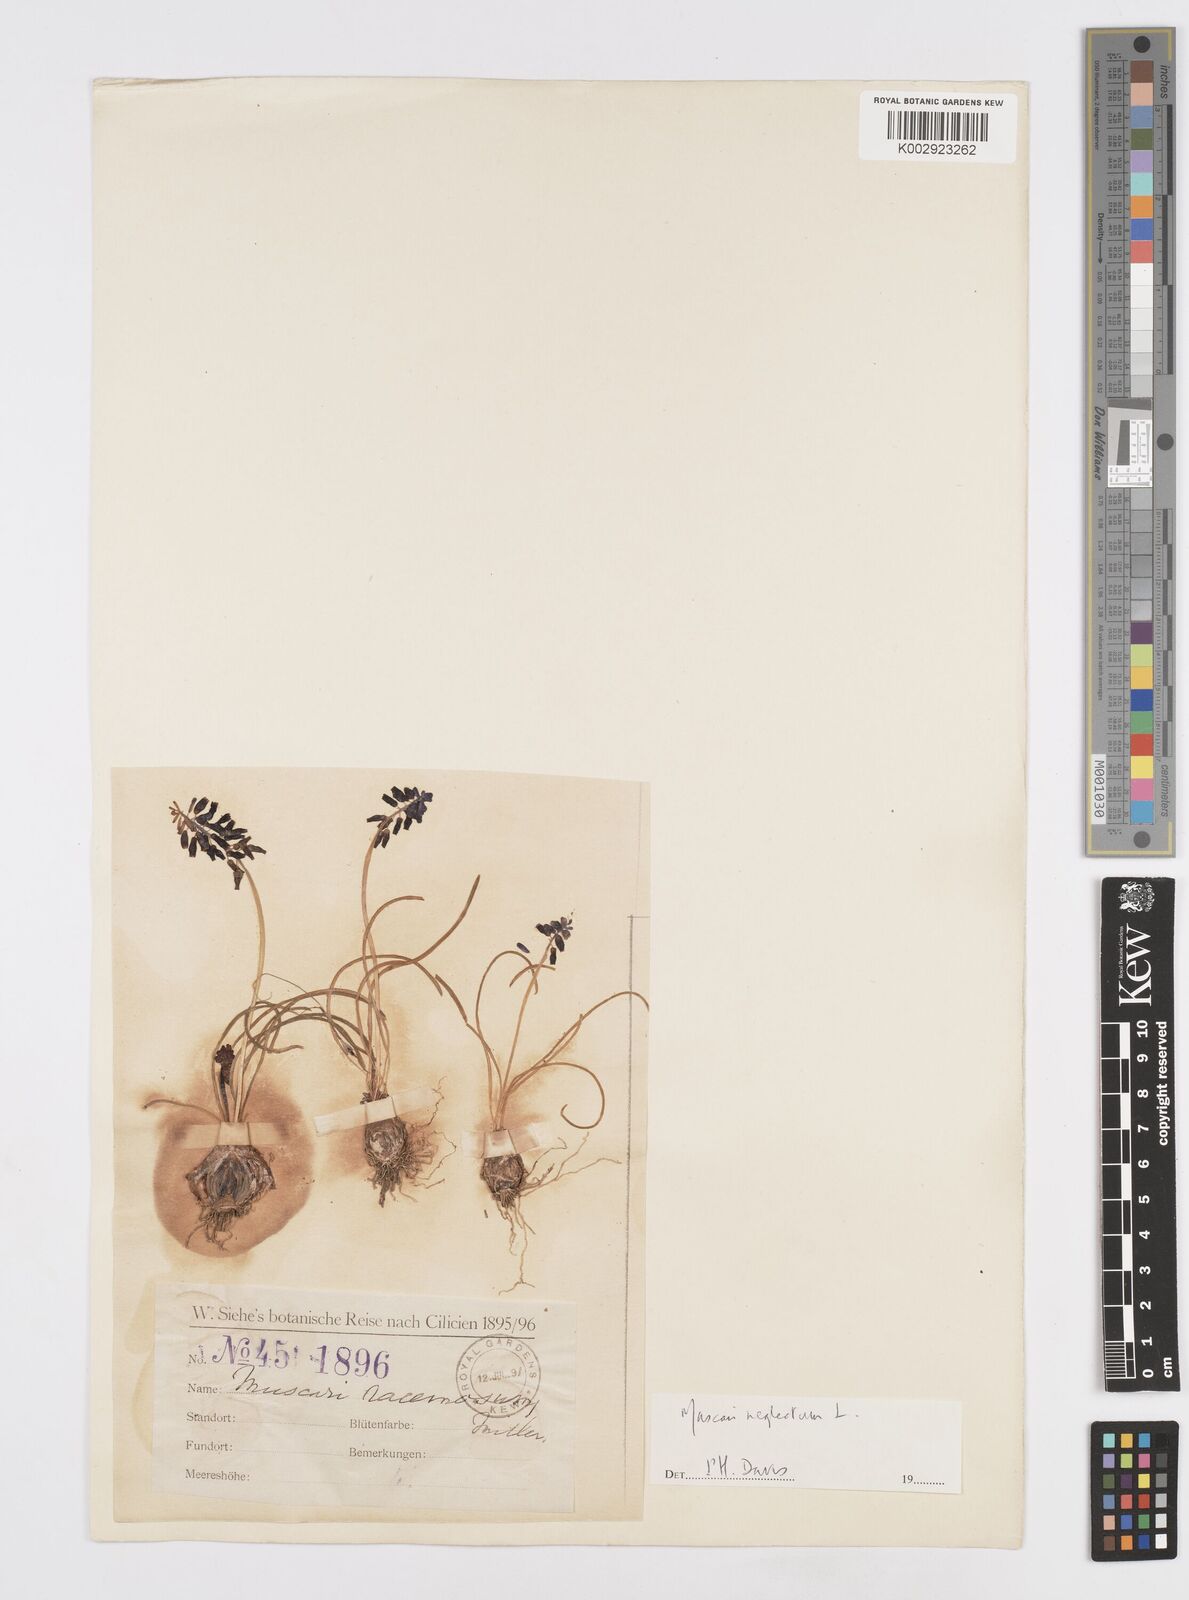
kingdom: Plantae
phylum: Tracheophyta
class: Liliopsida
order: Asparagales
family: Asparagaceae
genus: Muscari
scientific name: Muscari neglectum
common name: Grape-hyacinth
